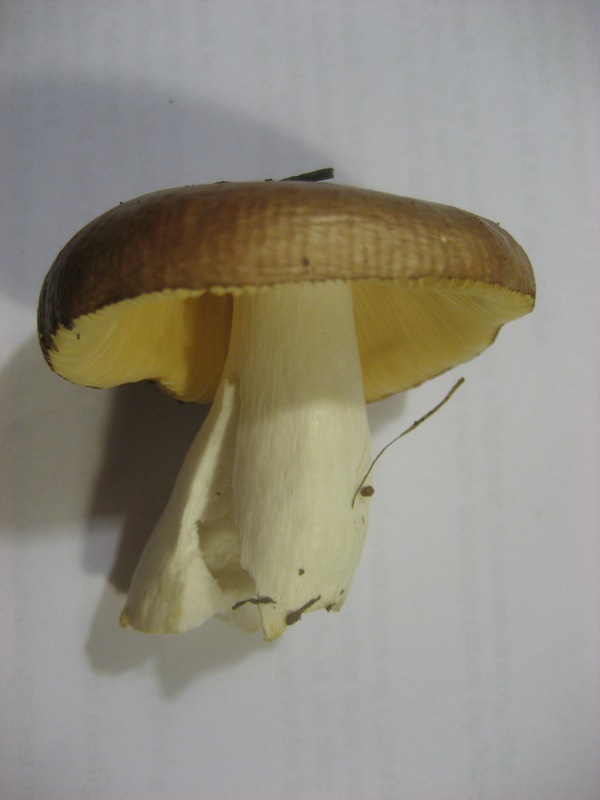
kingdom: Fungi
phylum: Basidiomycota
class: Agaricomycetes
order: Russulales
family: Russulaceae
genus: Russula
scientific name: Russula cessans
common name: fyrre-skørhat
